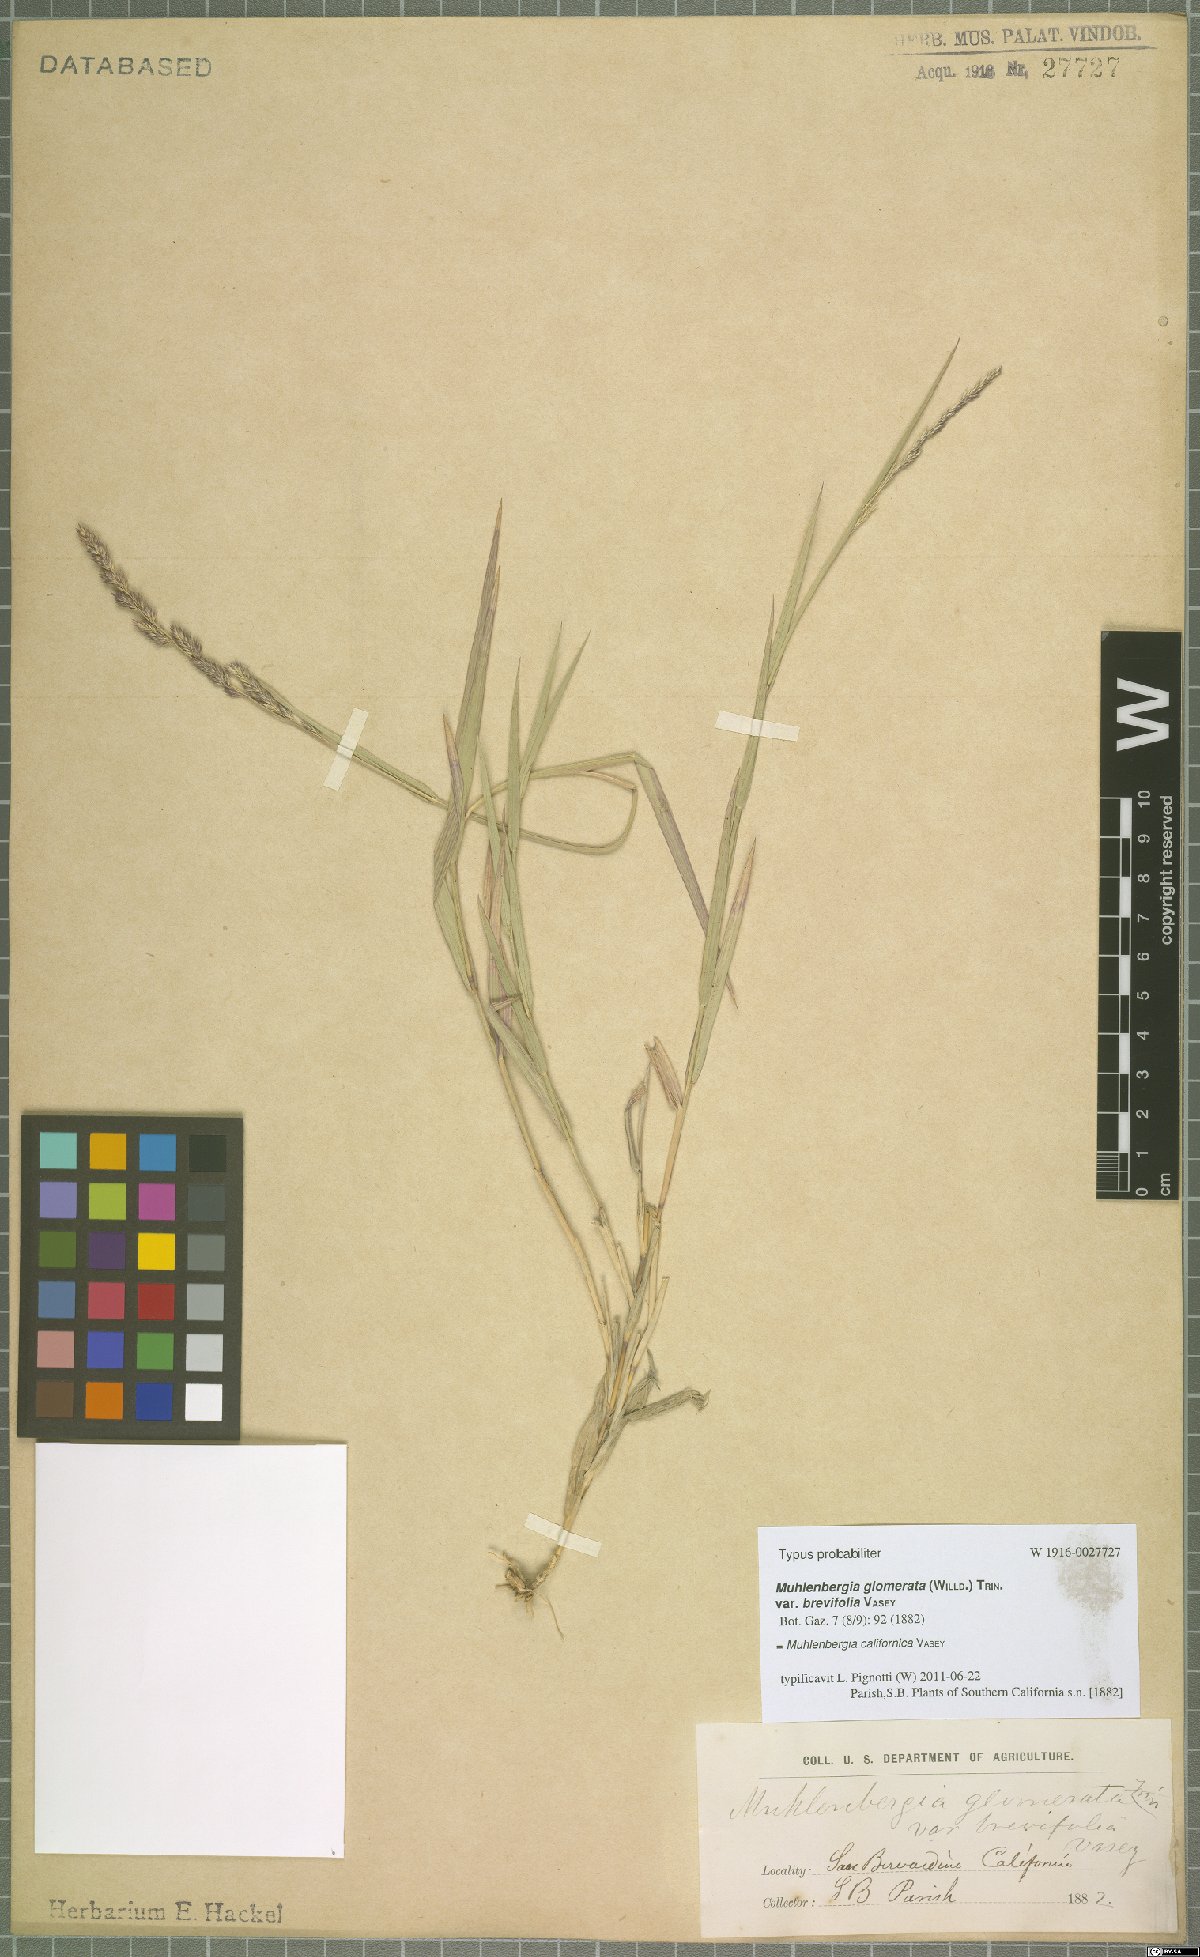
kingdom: Plantae
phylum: Tracheophyta
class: Liliopsida
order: Poales
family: Poaceae
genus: Muhlenbergia
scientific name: Muhlenbergia californica
